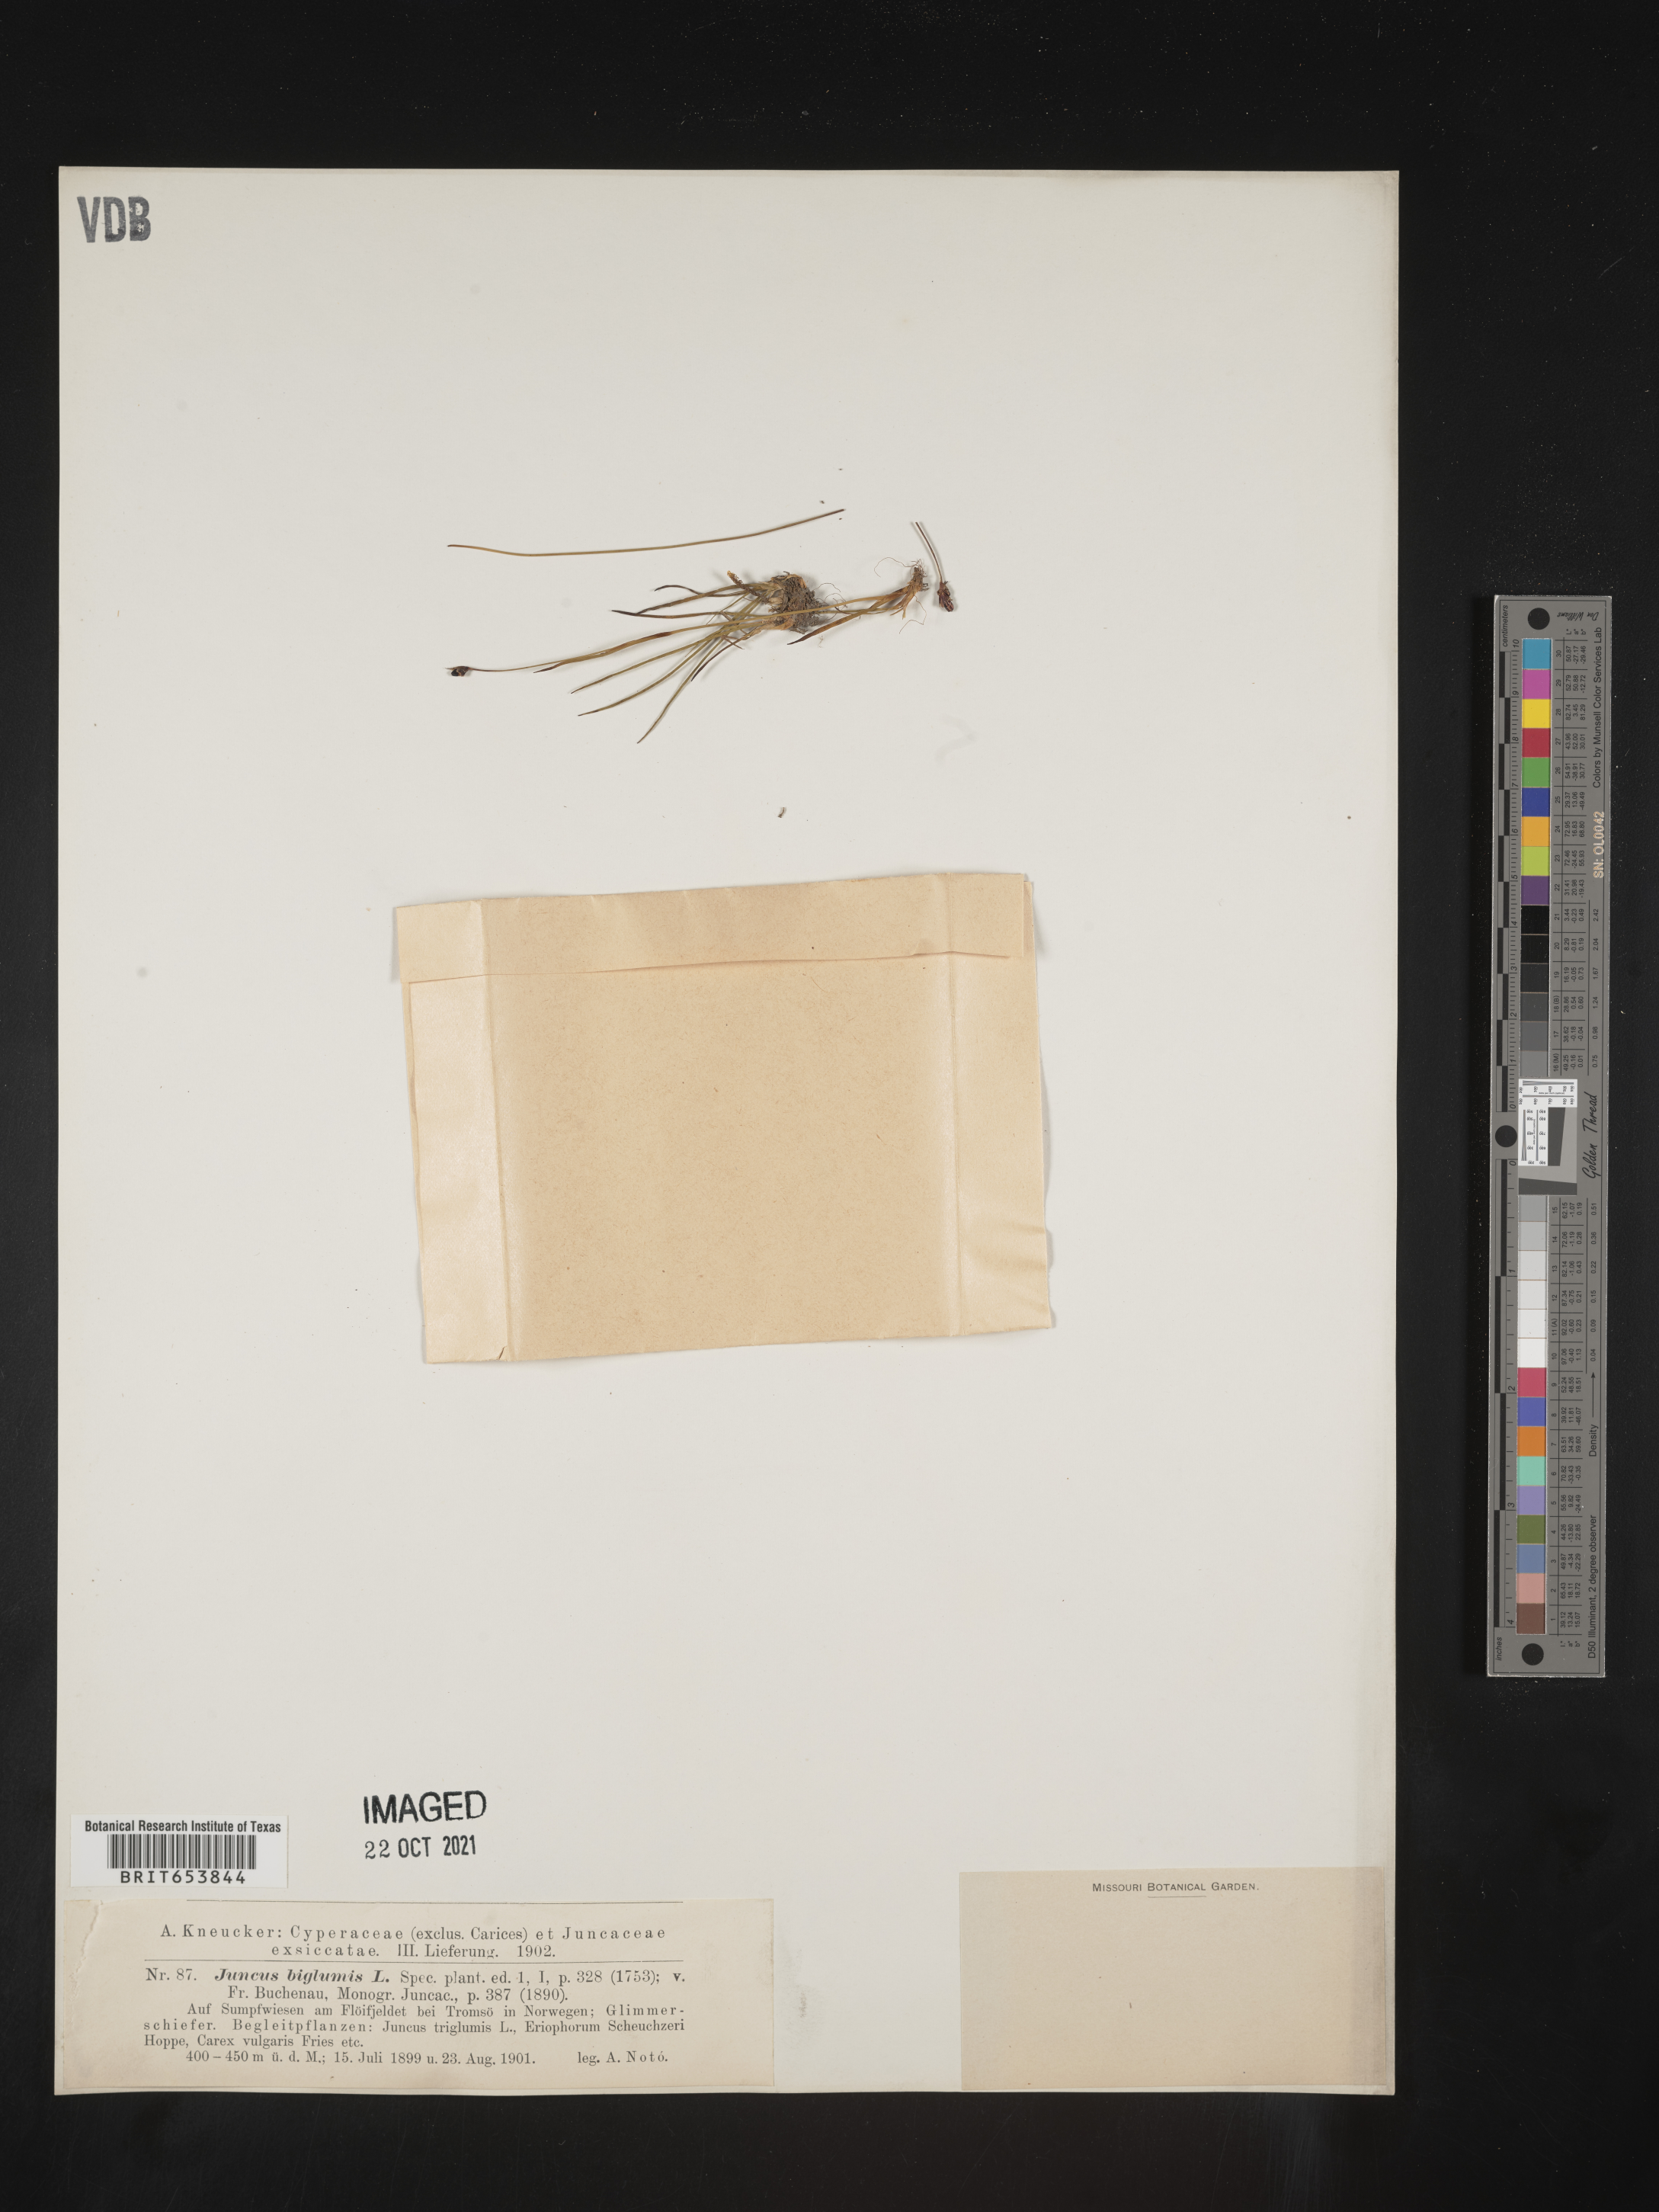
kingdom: Plantae
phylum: Tracheophyta
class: Liliopsida
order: Poales
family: Juncaceae
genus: Juncus
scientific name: Juncus
